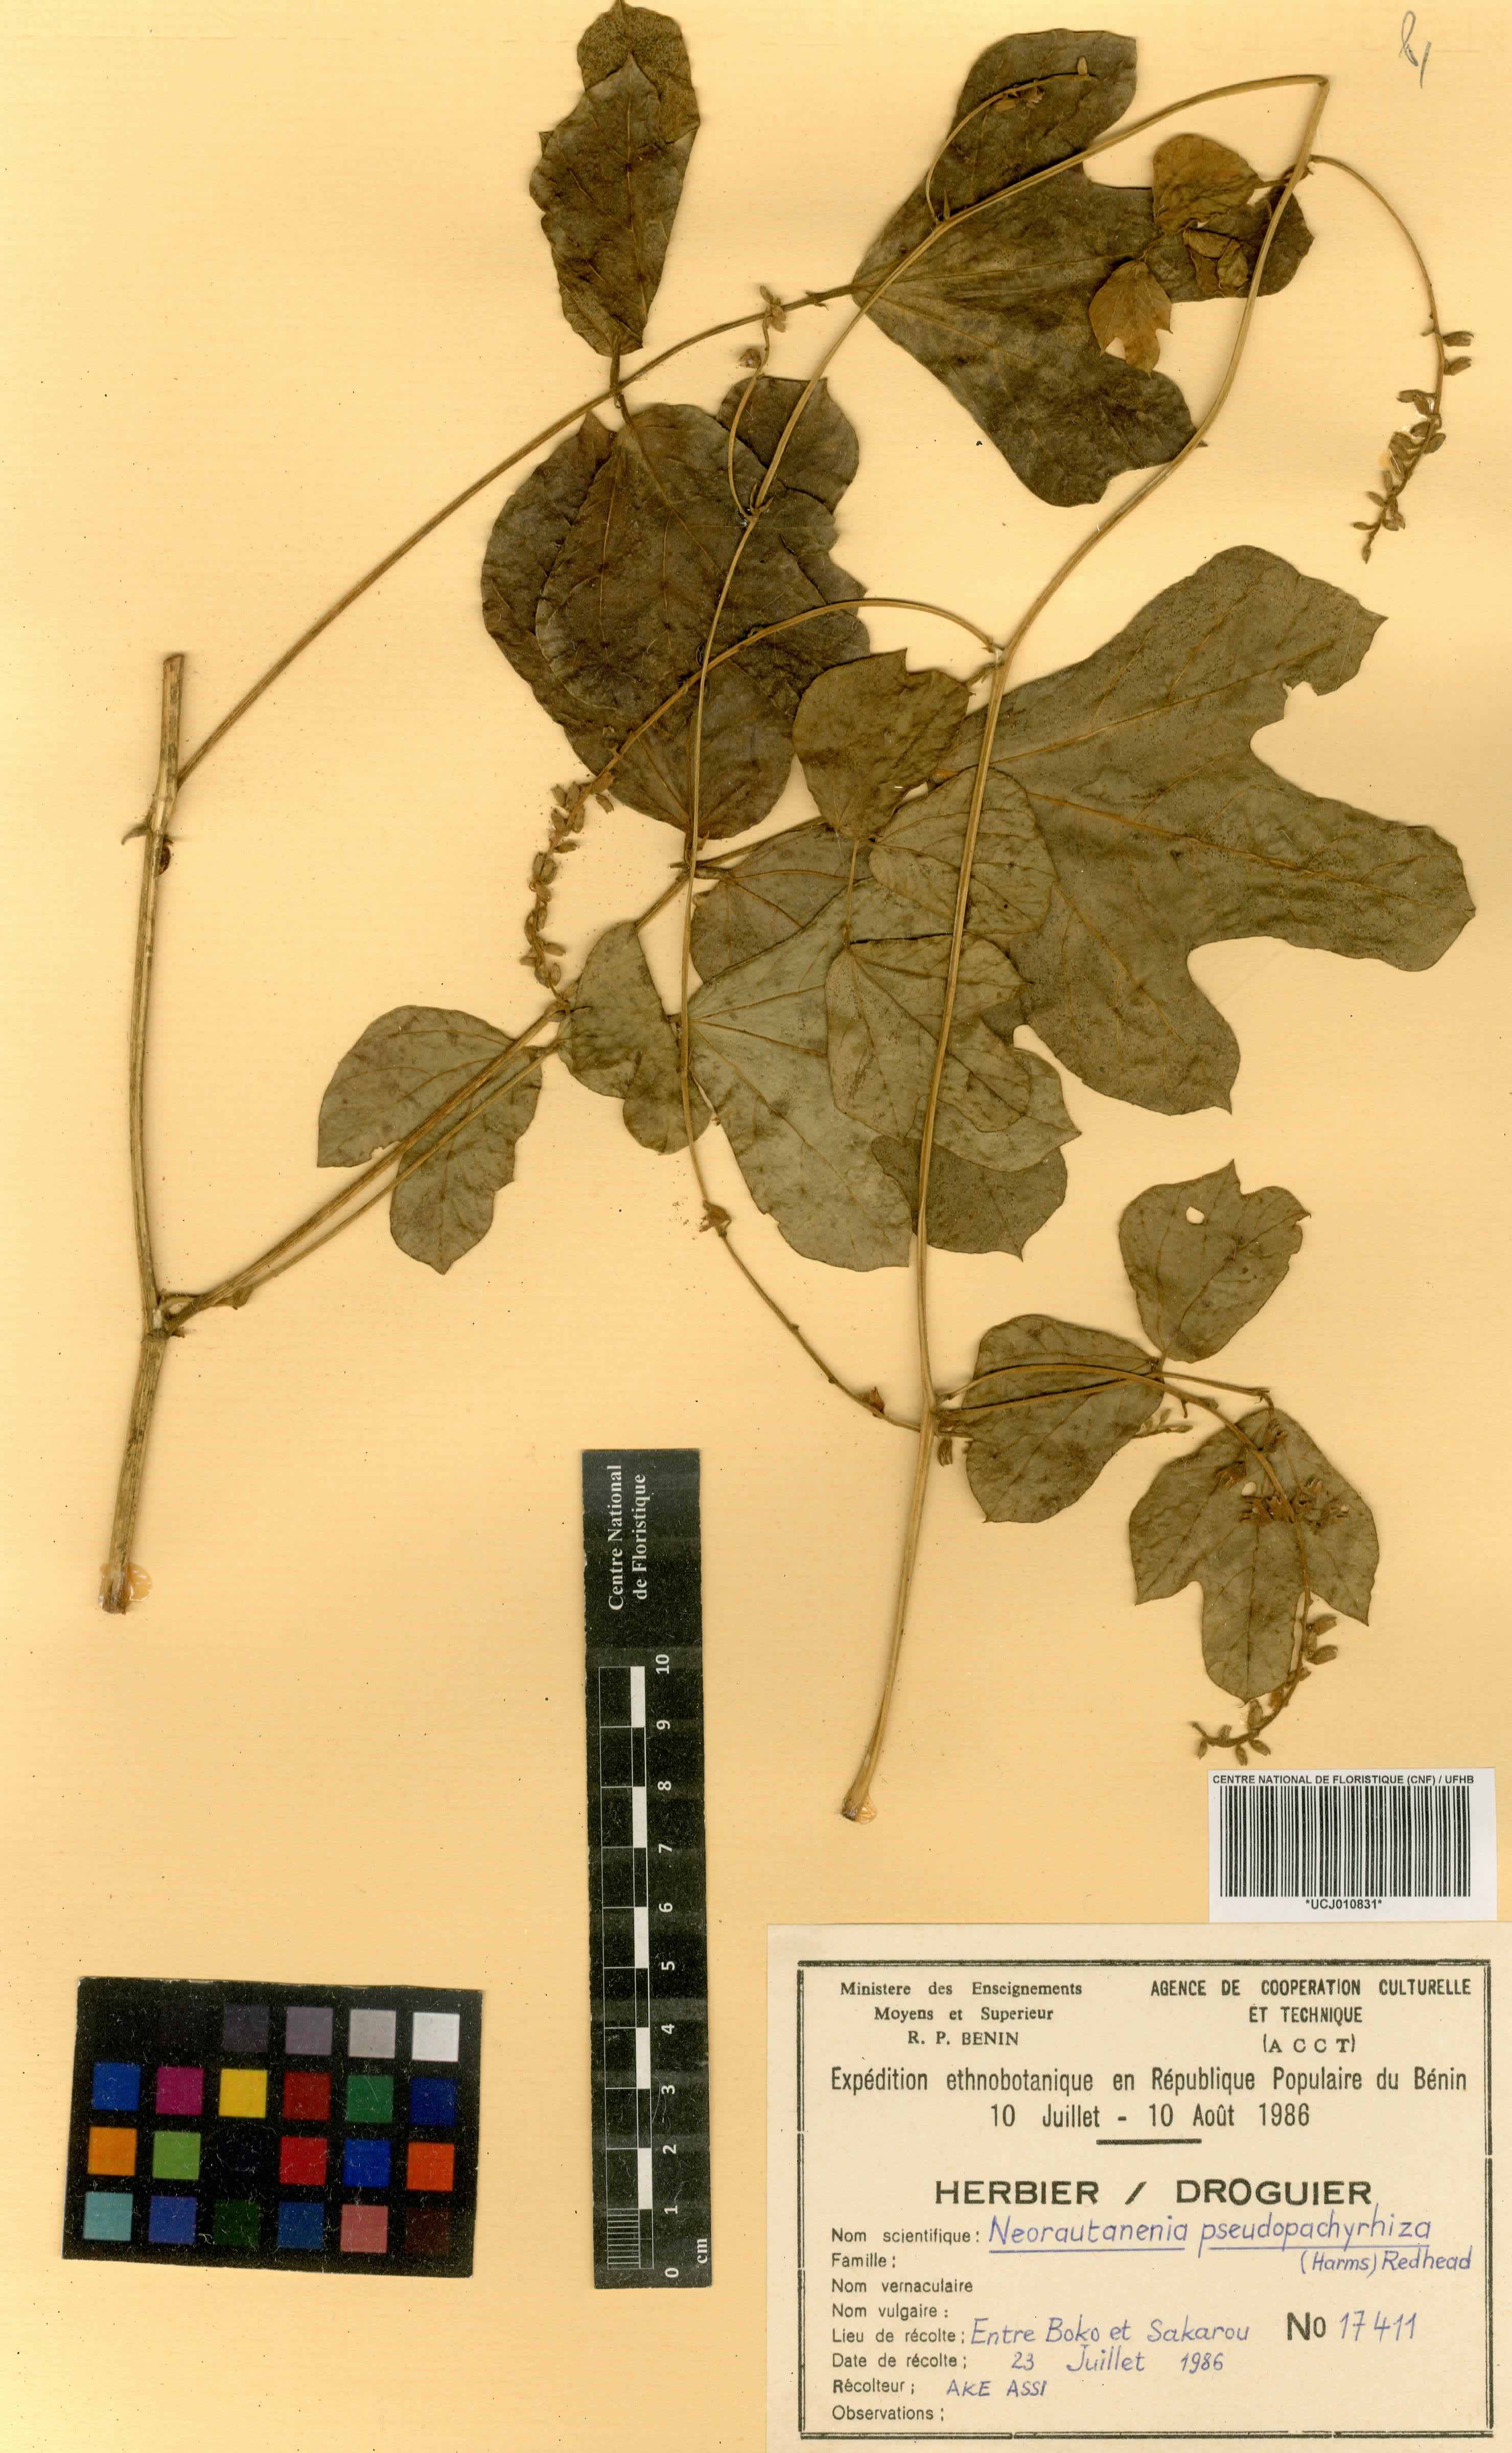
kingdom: Plantae
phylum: Tracheophyta
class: Magnoliopsida
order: Fabales
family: Fabaceae
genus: Neorautanenia
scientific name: Neorautanenia mitis
